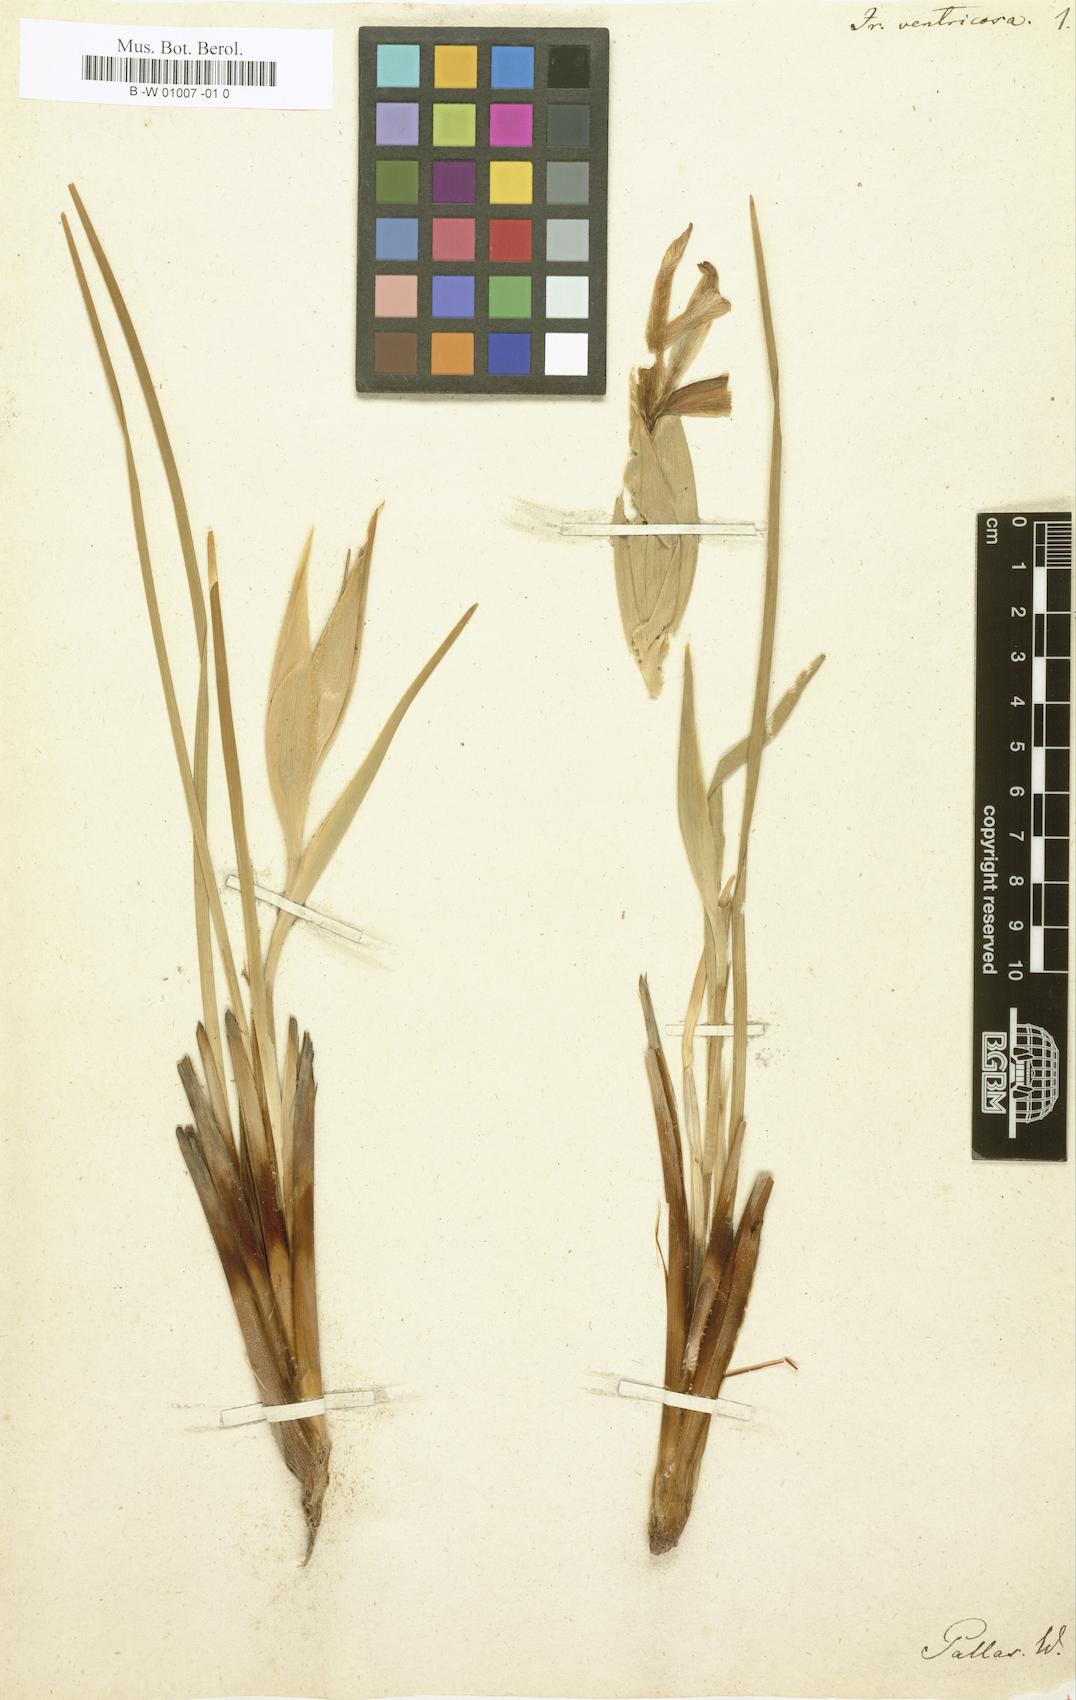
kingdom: Plantae
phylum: Tracheophyta
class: Liliopsida
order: Asparagales
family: Iridaceae
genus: Iris
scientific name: Iris ventricosa
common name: Purple-flower iris
